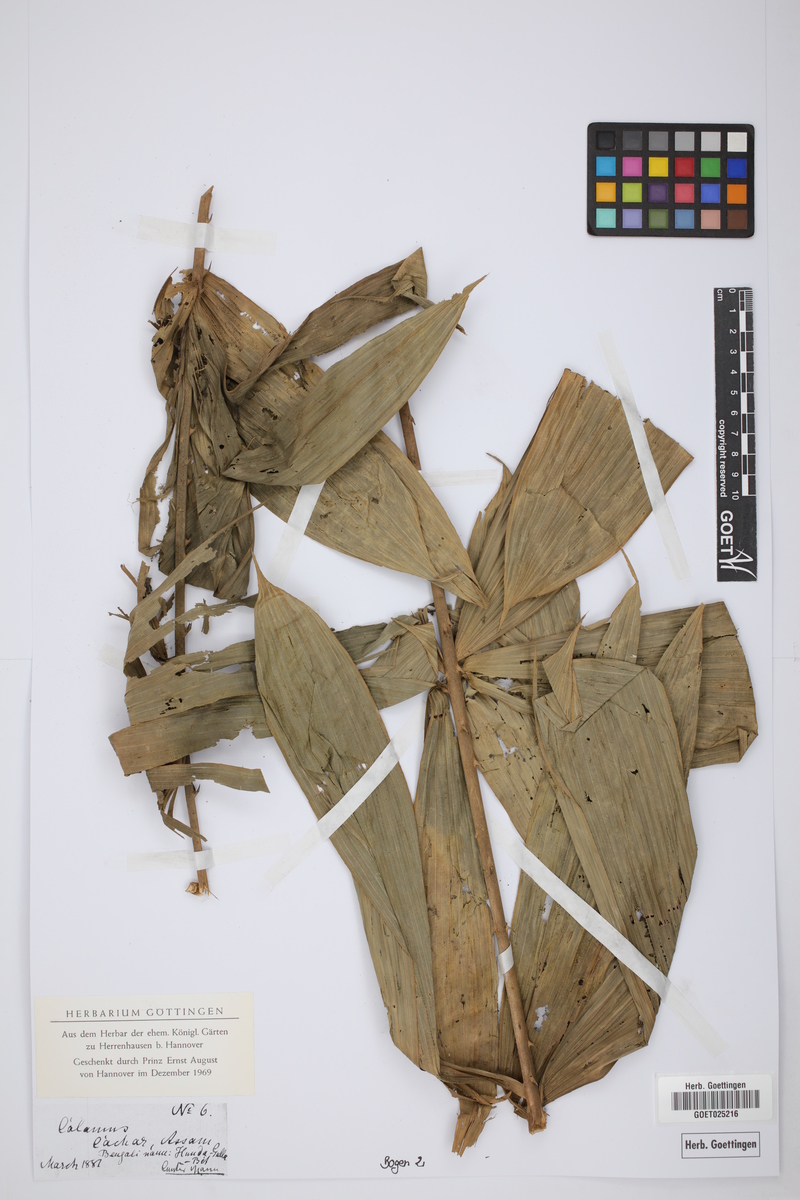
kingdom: Plantae
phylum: Tracheophyta
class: Liliopsida
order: Arecales
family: Arecaceae
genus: Calamus
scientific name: Calamus
